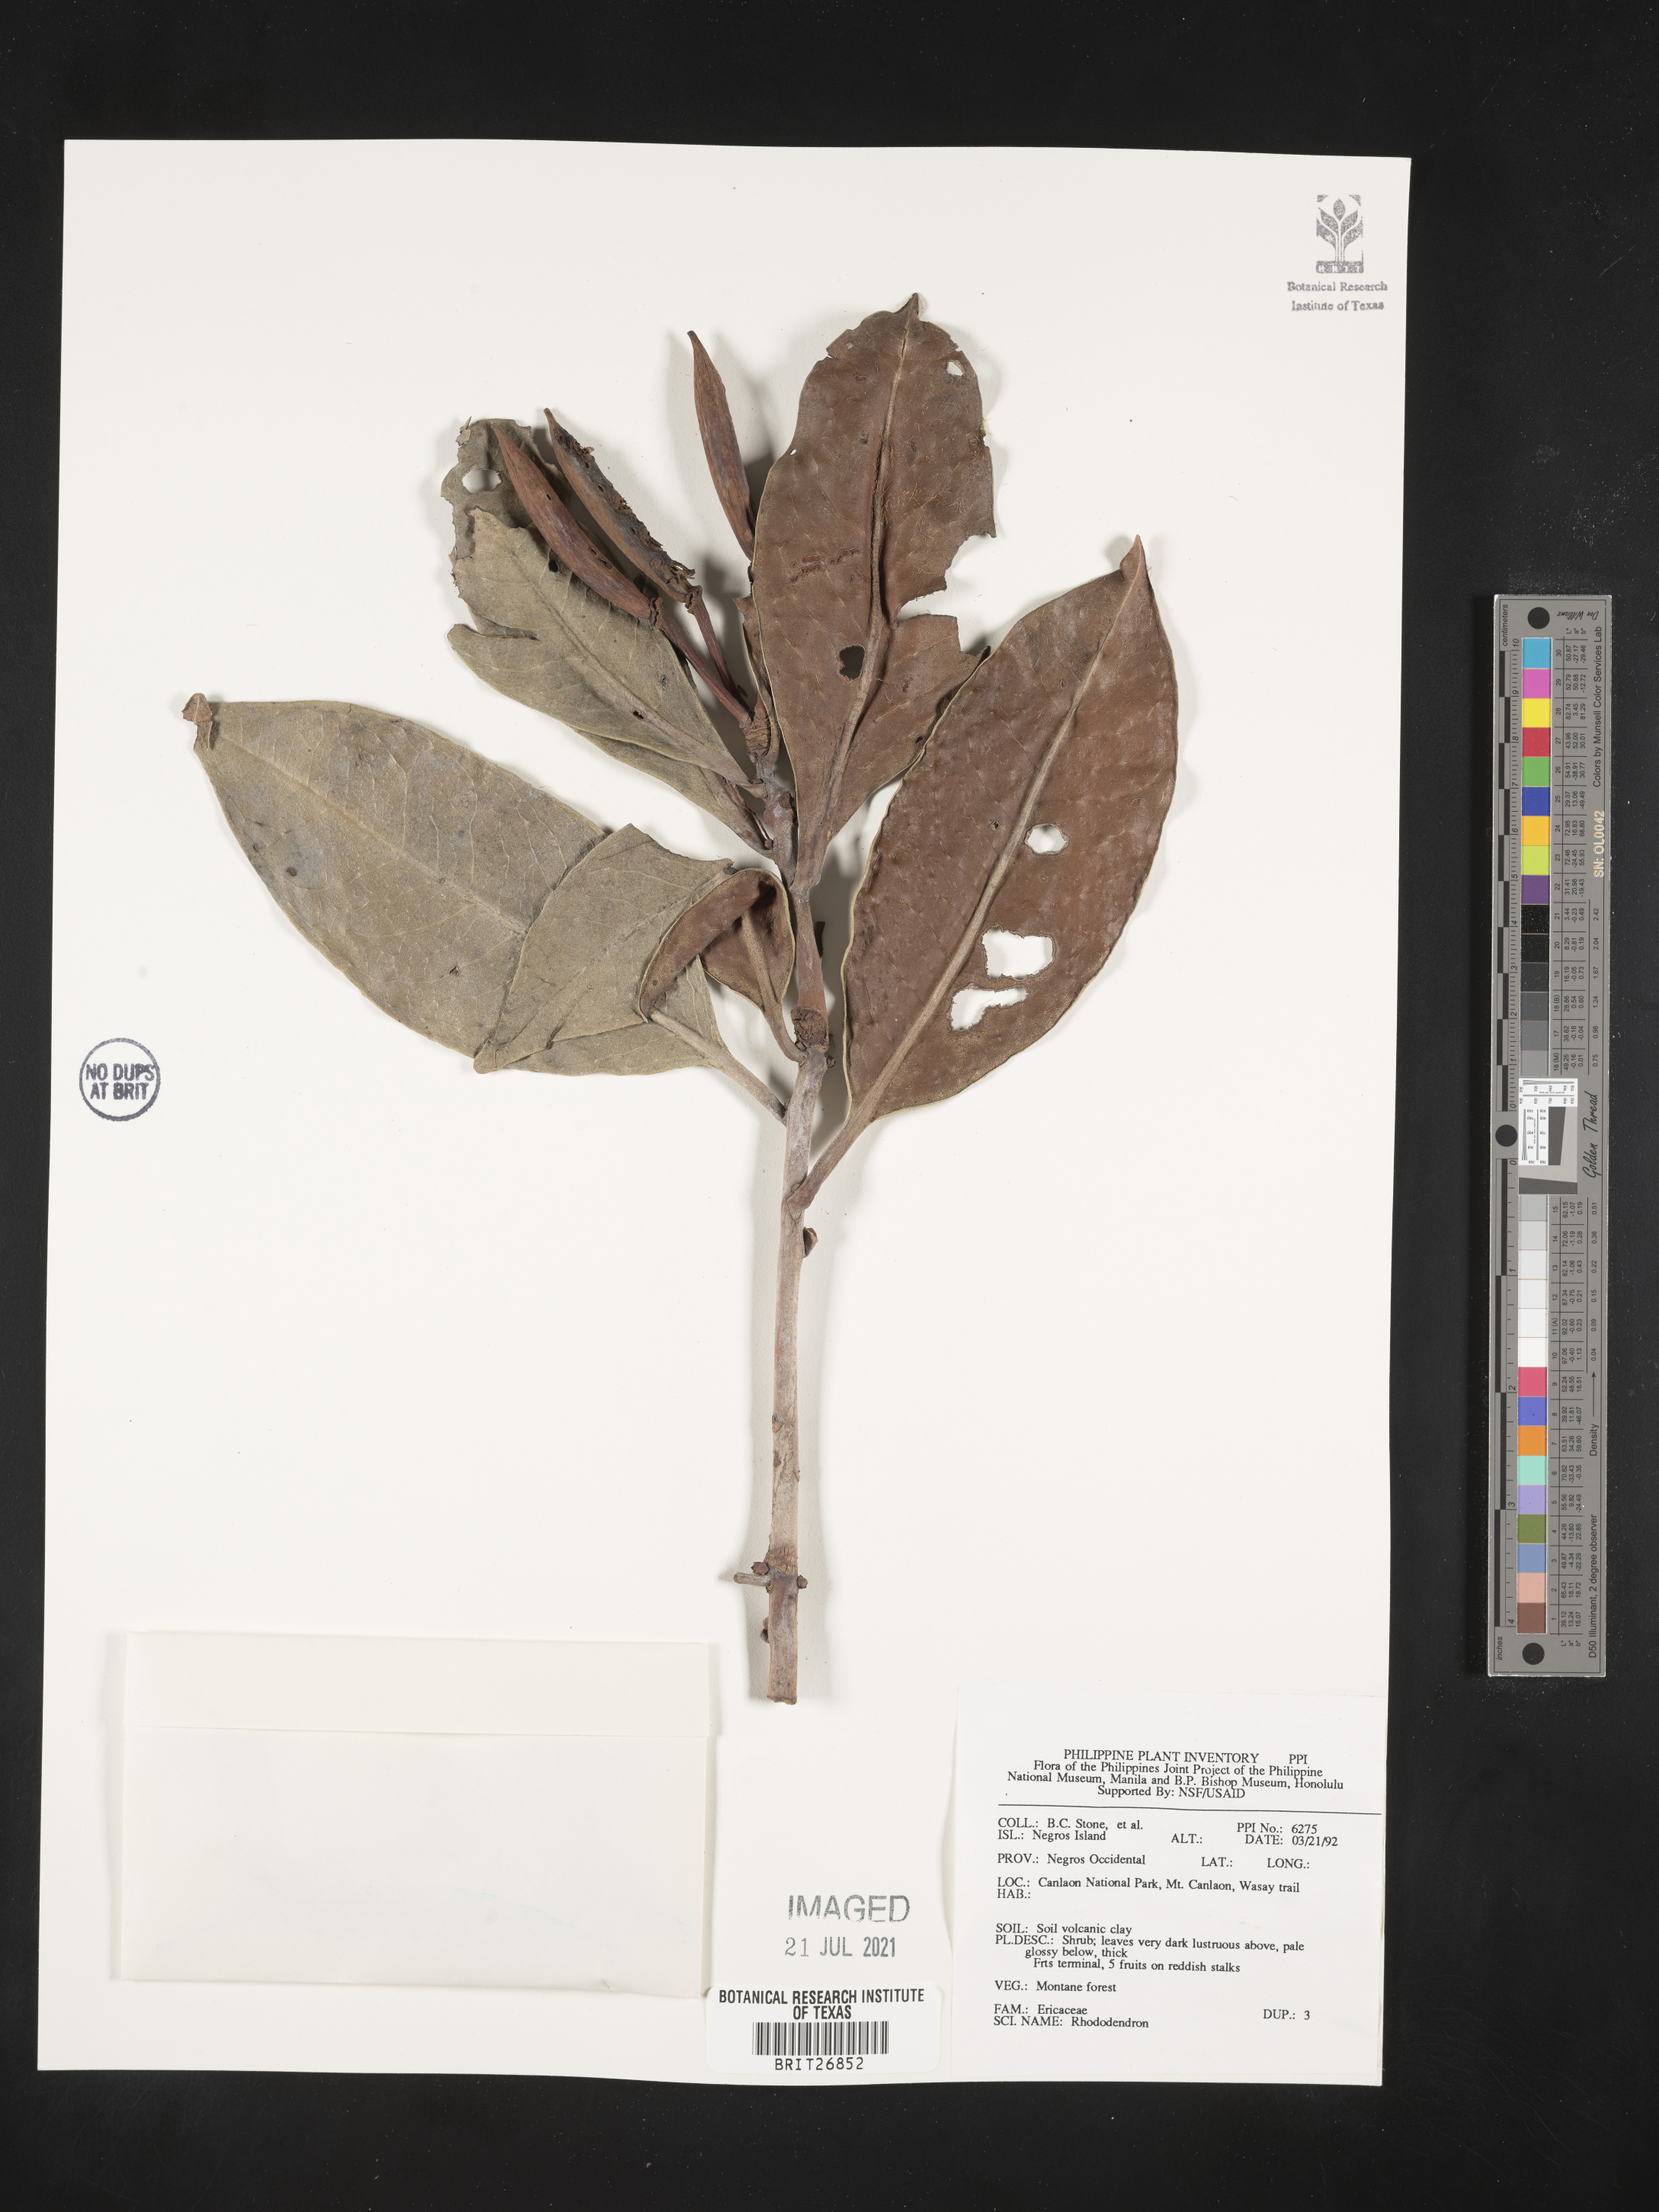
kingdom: Plantae
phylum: Tracheophyta
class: Magnoliopsida
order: Ericales
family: Ericaceae
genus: Rhododendron
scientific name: Rhododendron
